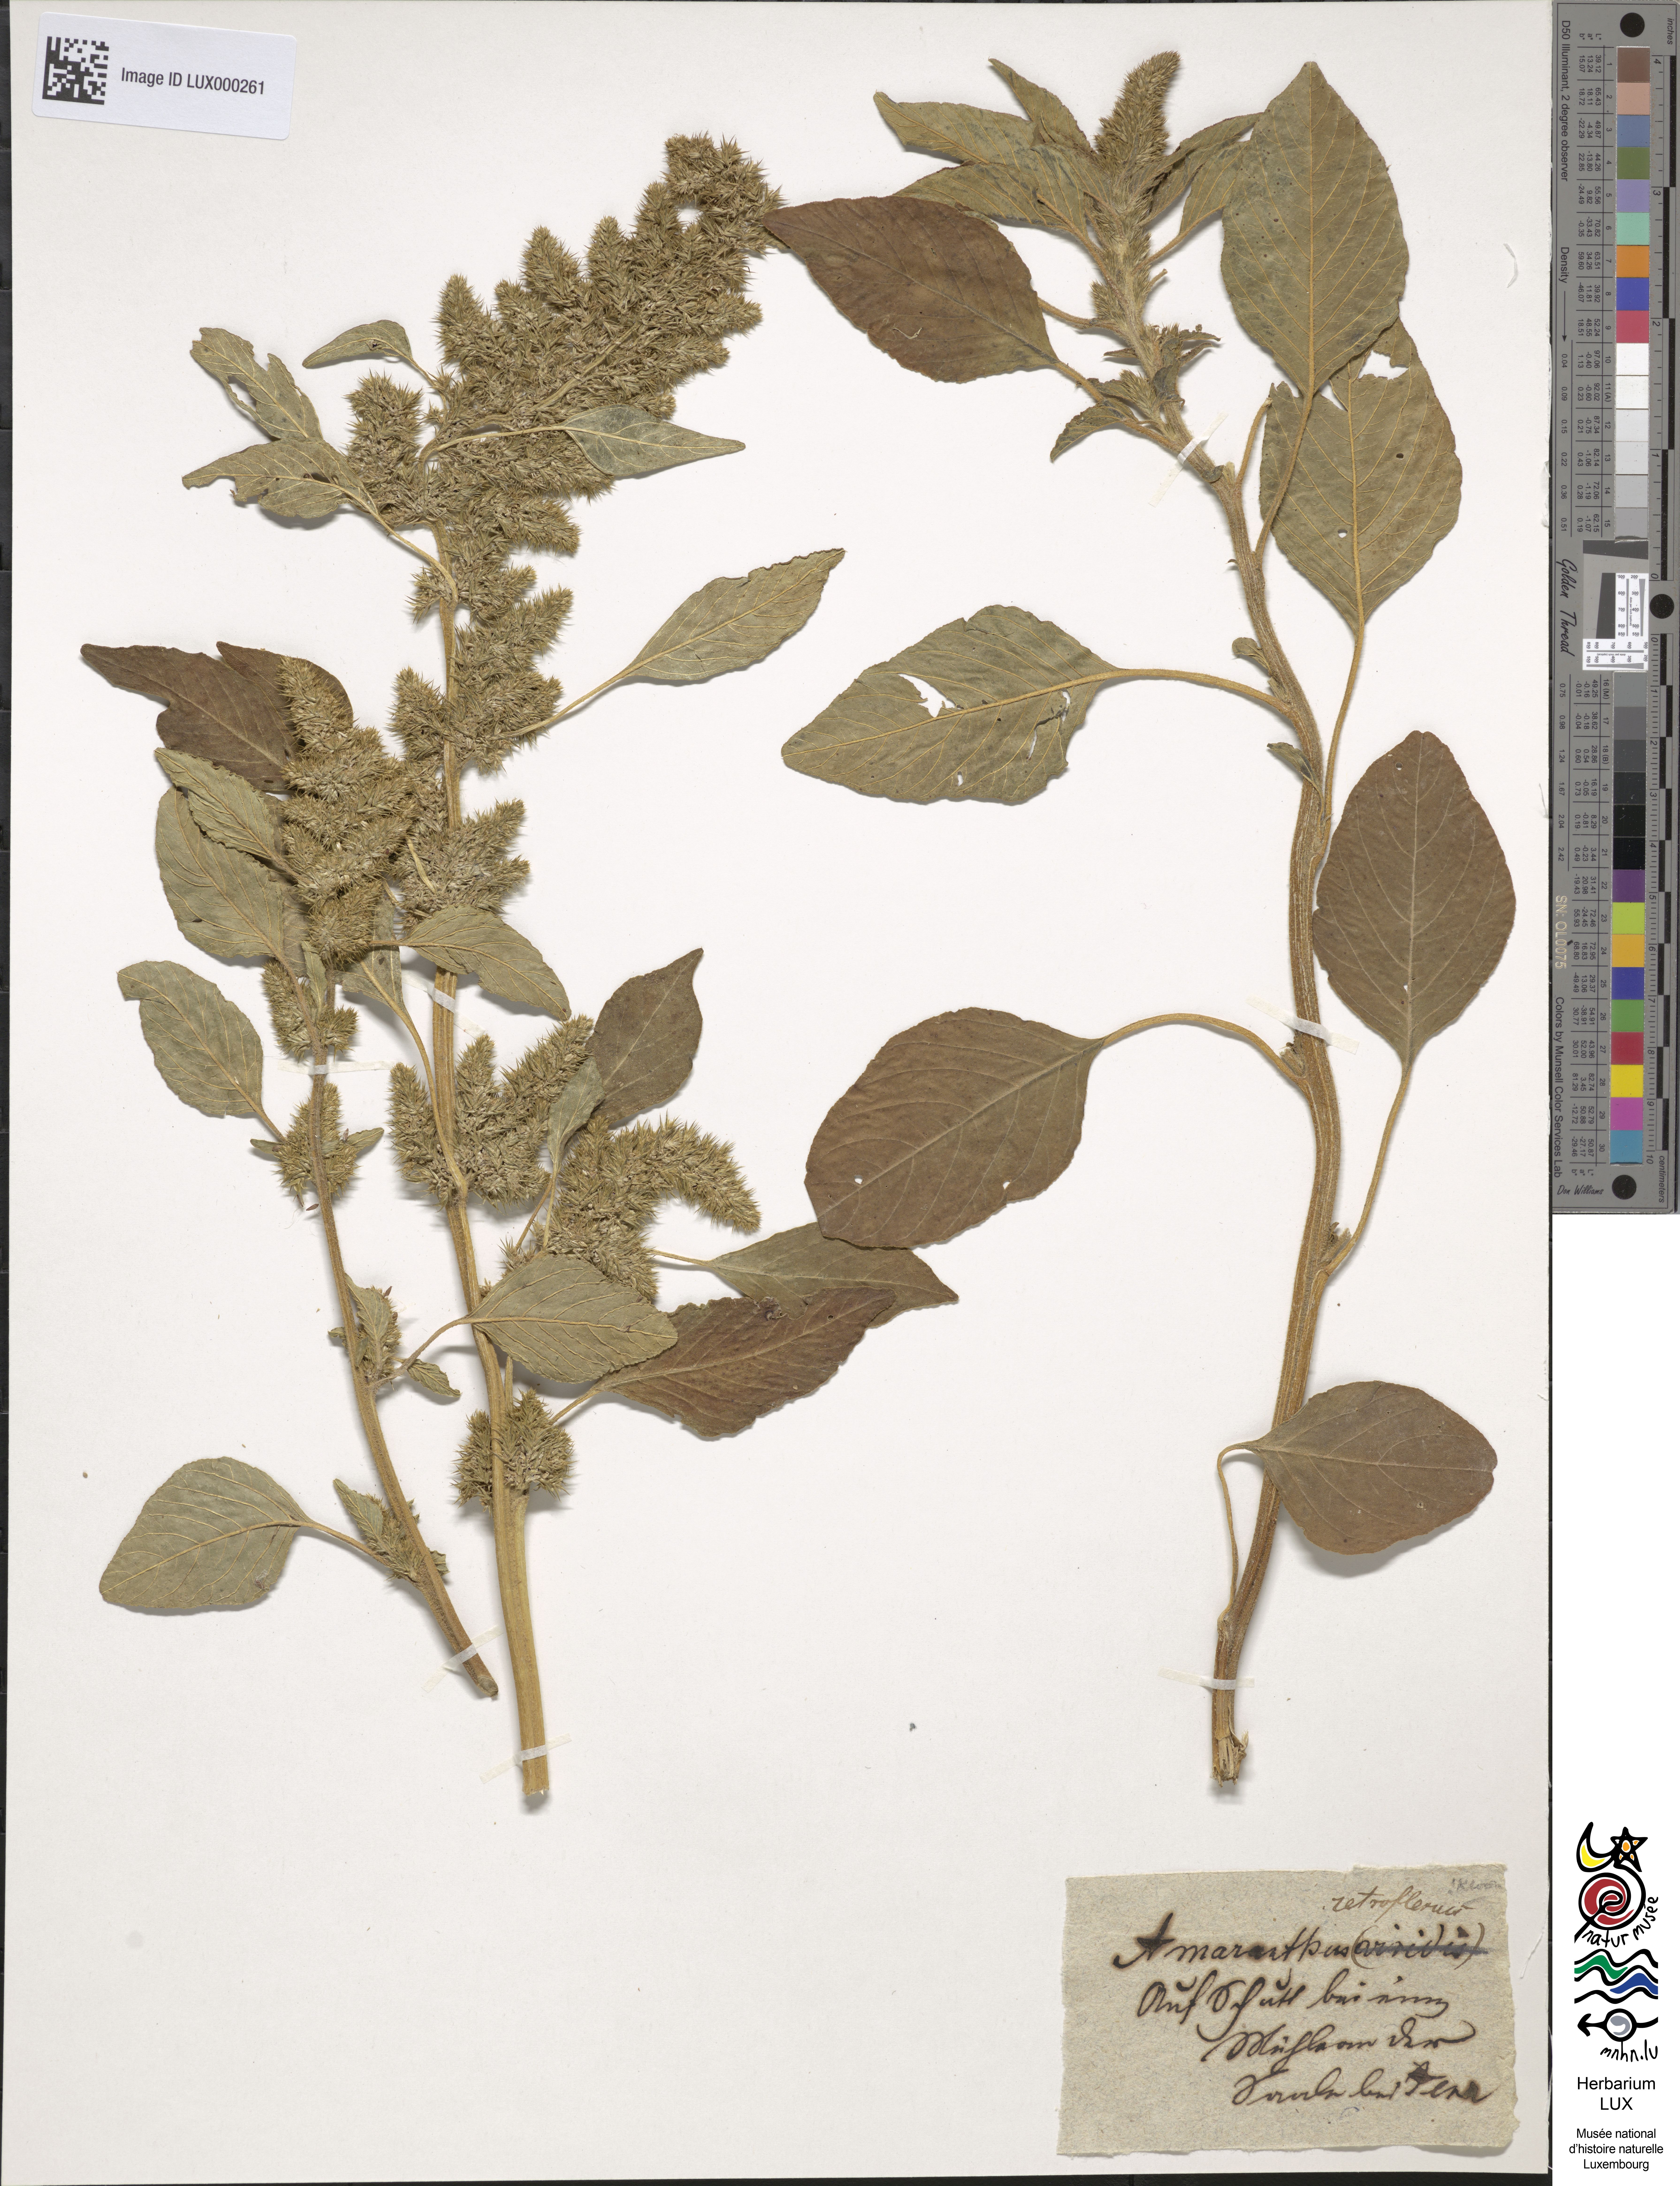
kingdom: Plantae
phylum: Tracheophyta
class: Magnoliopsida
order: Caryophyllales
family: Amaranthaceae
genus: Amaranthus
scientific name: Amaranthus retroflexus
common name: Redroot amaranth
